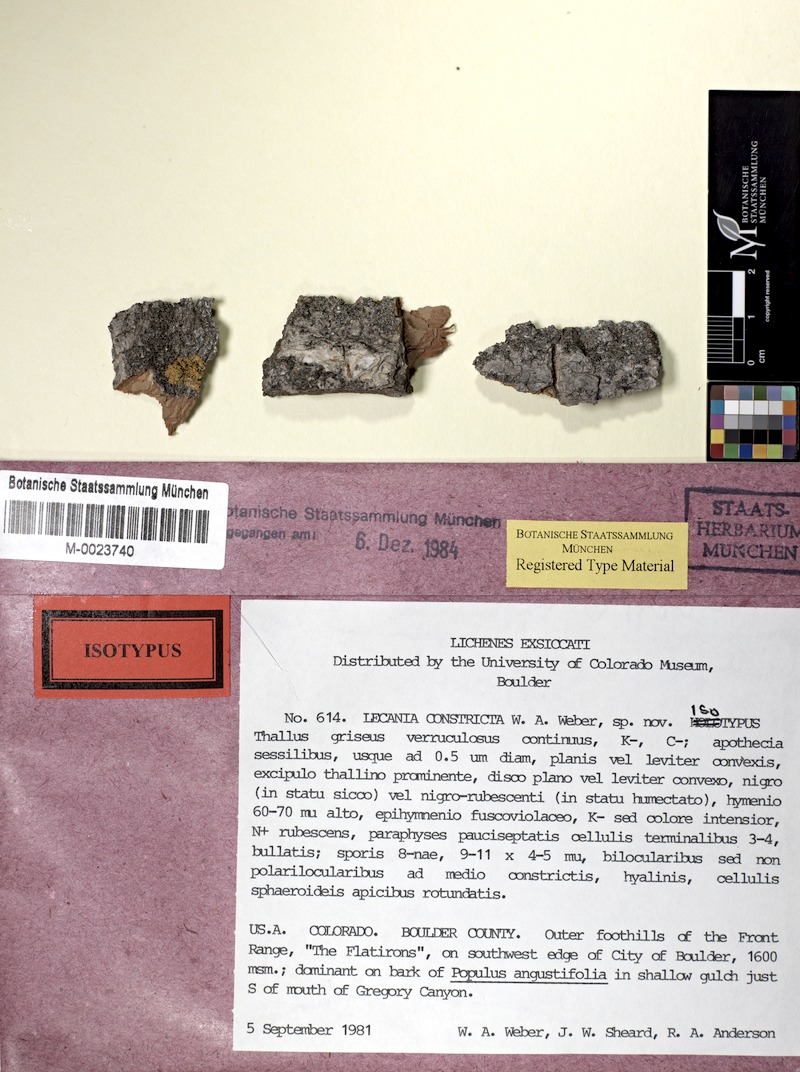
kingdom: Fungi
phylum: Ascomycota
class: Lecanoromycetes
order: Lecanorales
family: Ramalinaceae
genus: Lecania
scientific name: Lecania constricta
